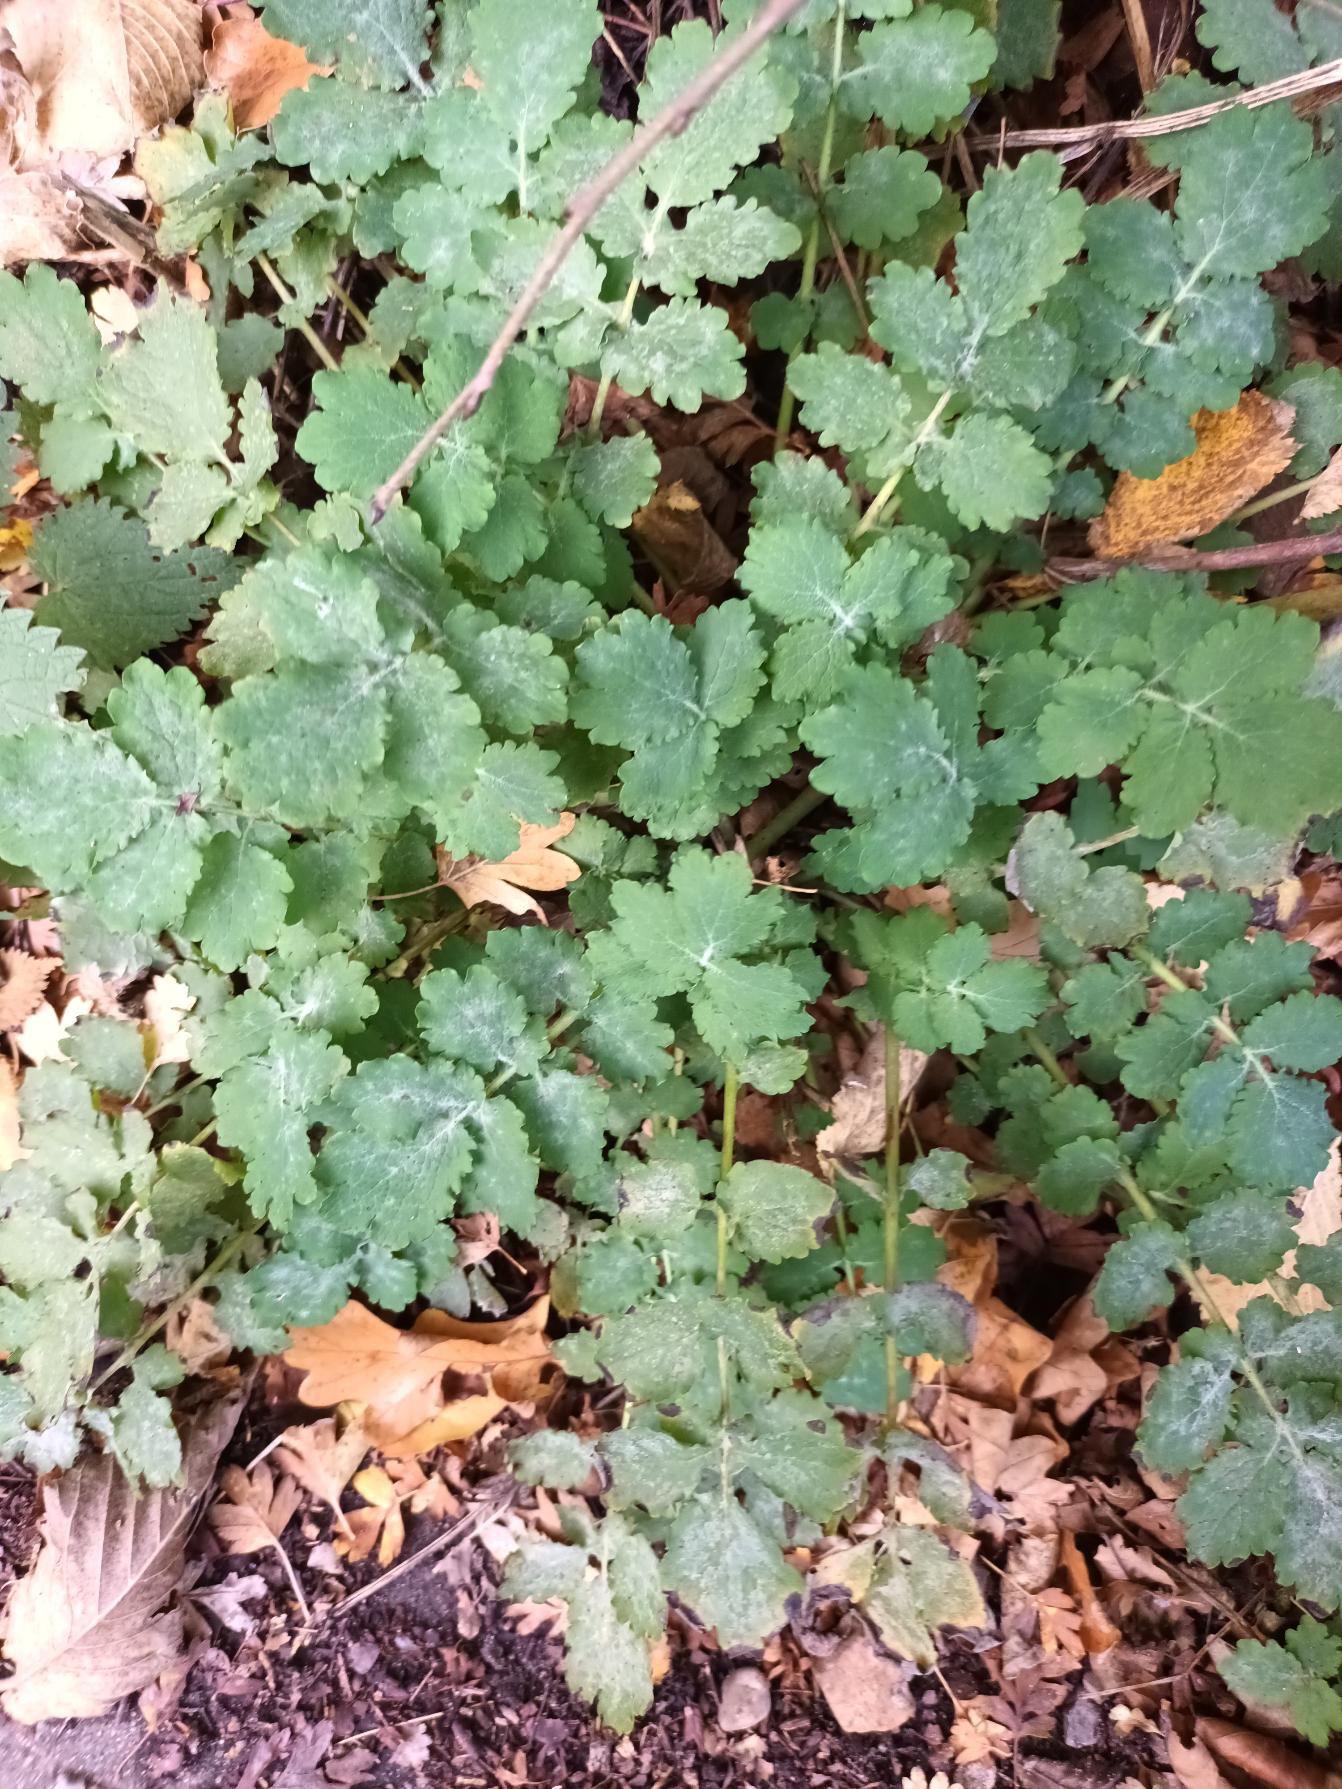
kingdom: Plantae
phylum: Tracheophyta
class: Magnoliopsida
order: Ranunculales
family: Papaveraceae
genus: Chelidonium
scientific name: Chelidonium majus
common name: Svaleurt
